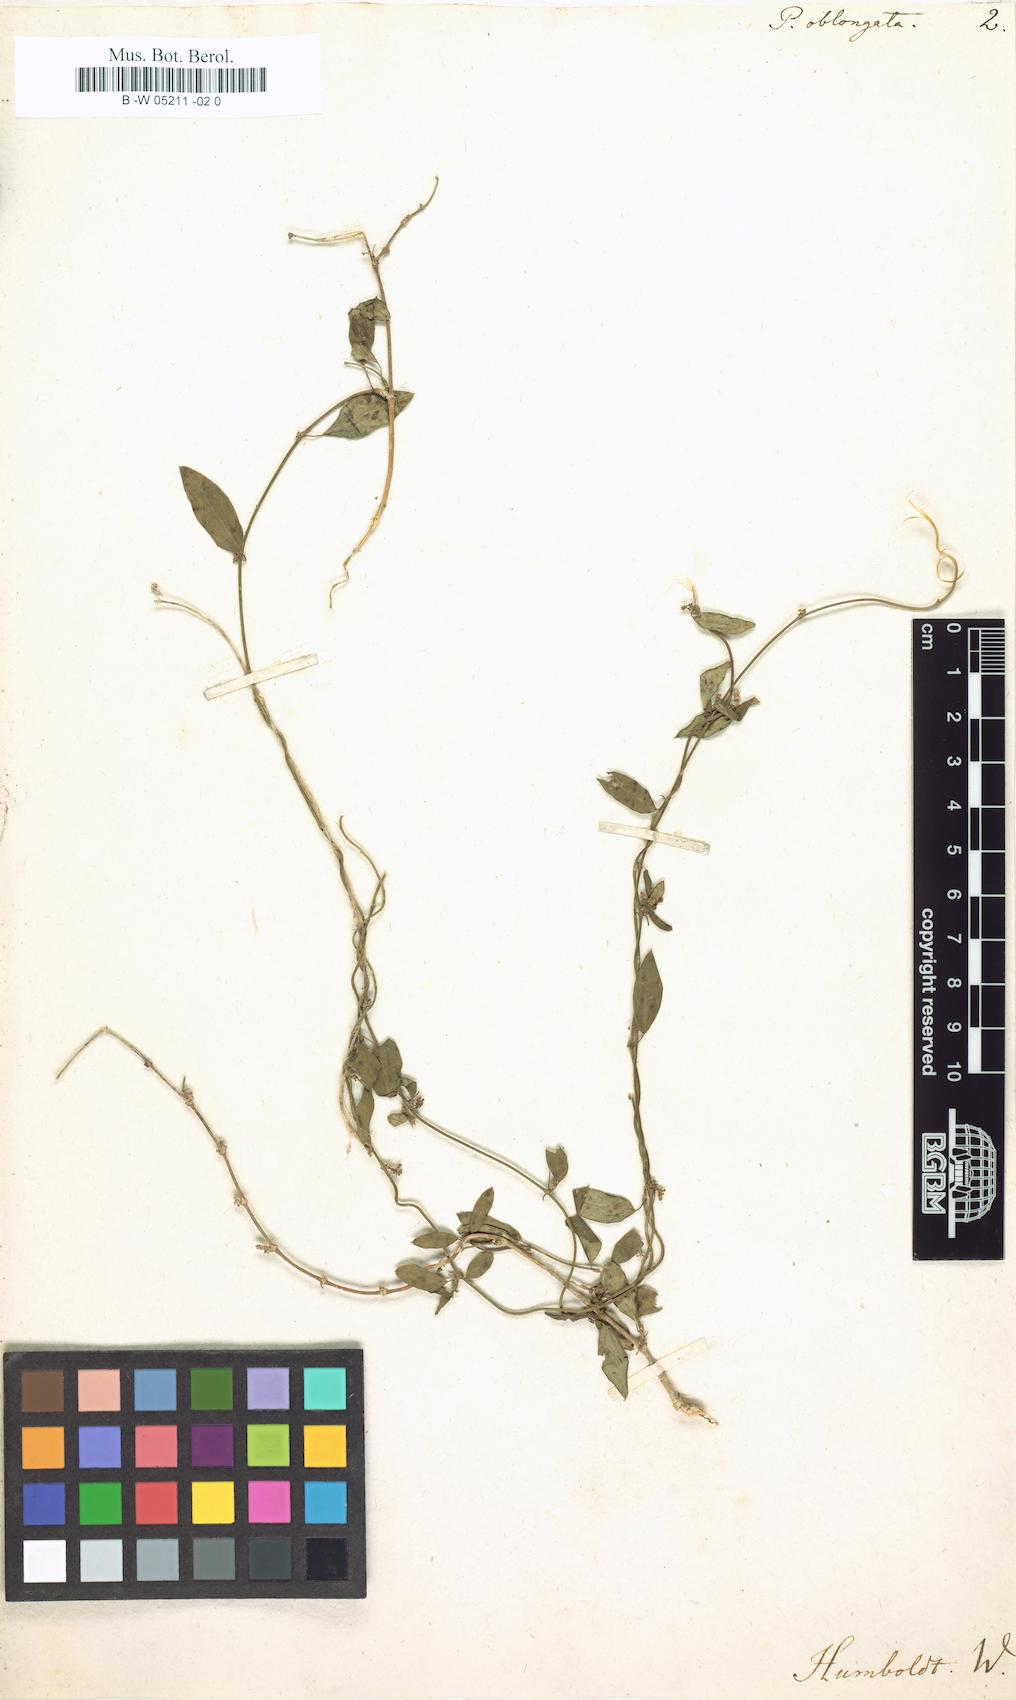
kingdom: Plantae
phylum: Tracheophyta
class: Magnoliopsida
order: Gentianales
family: Apocynaceae
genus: Periploca
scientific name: Periploca oblongata
